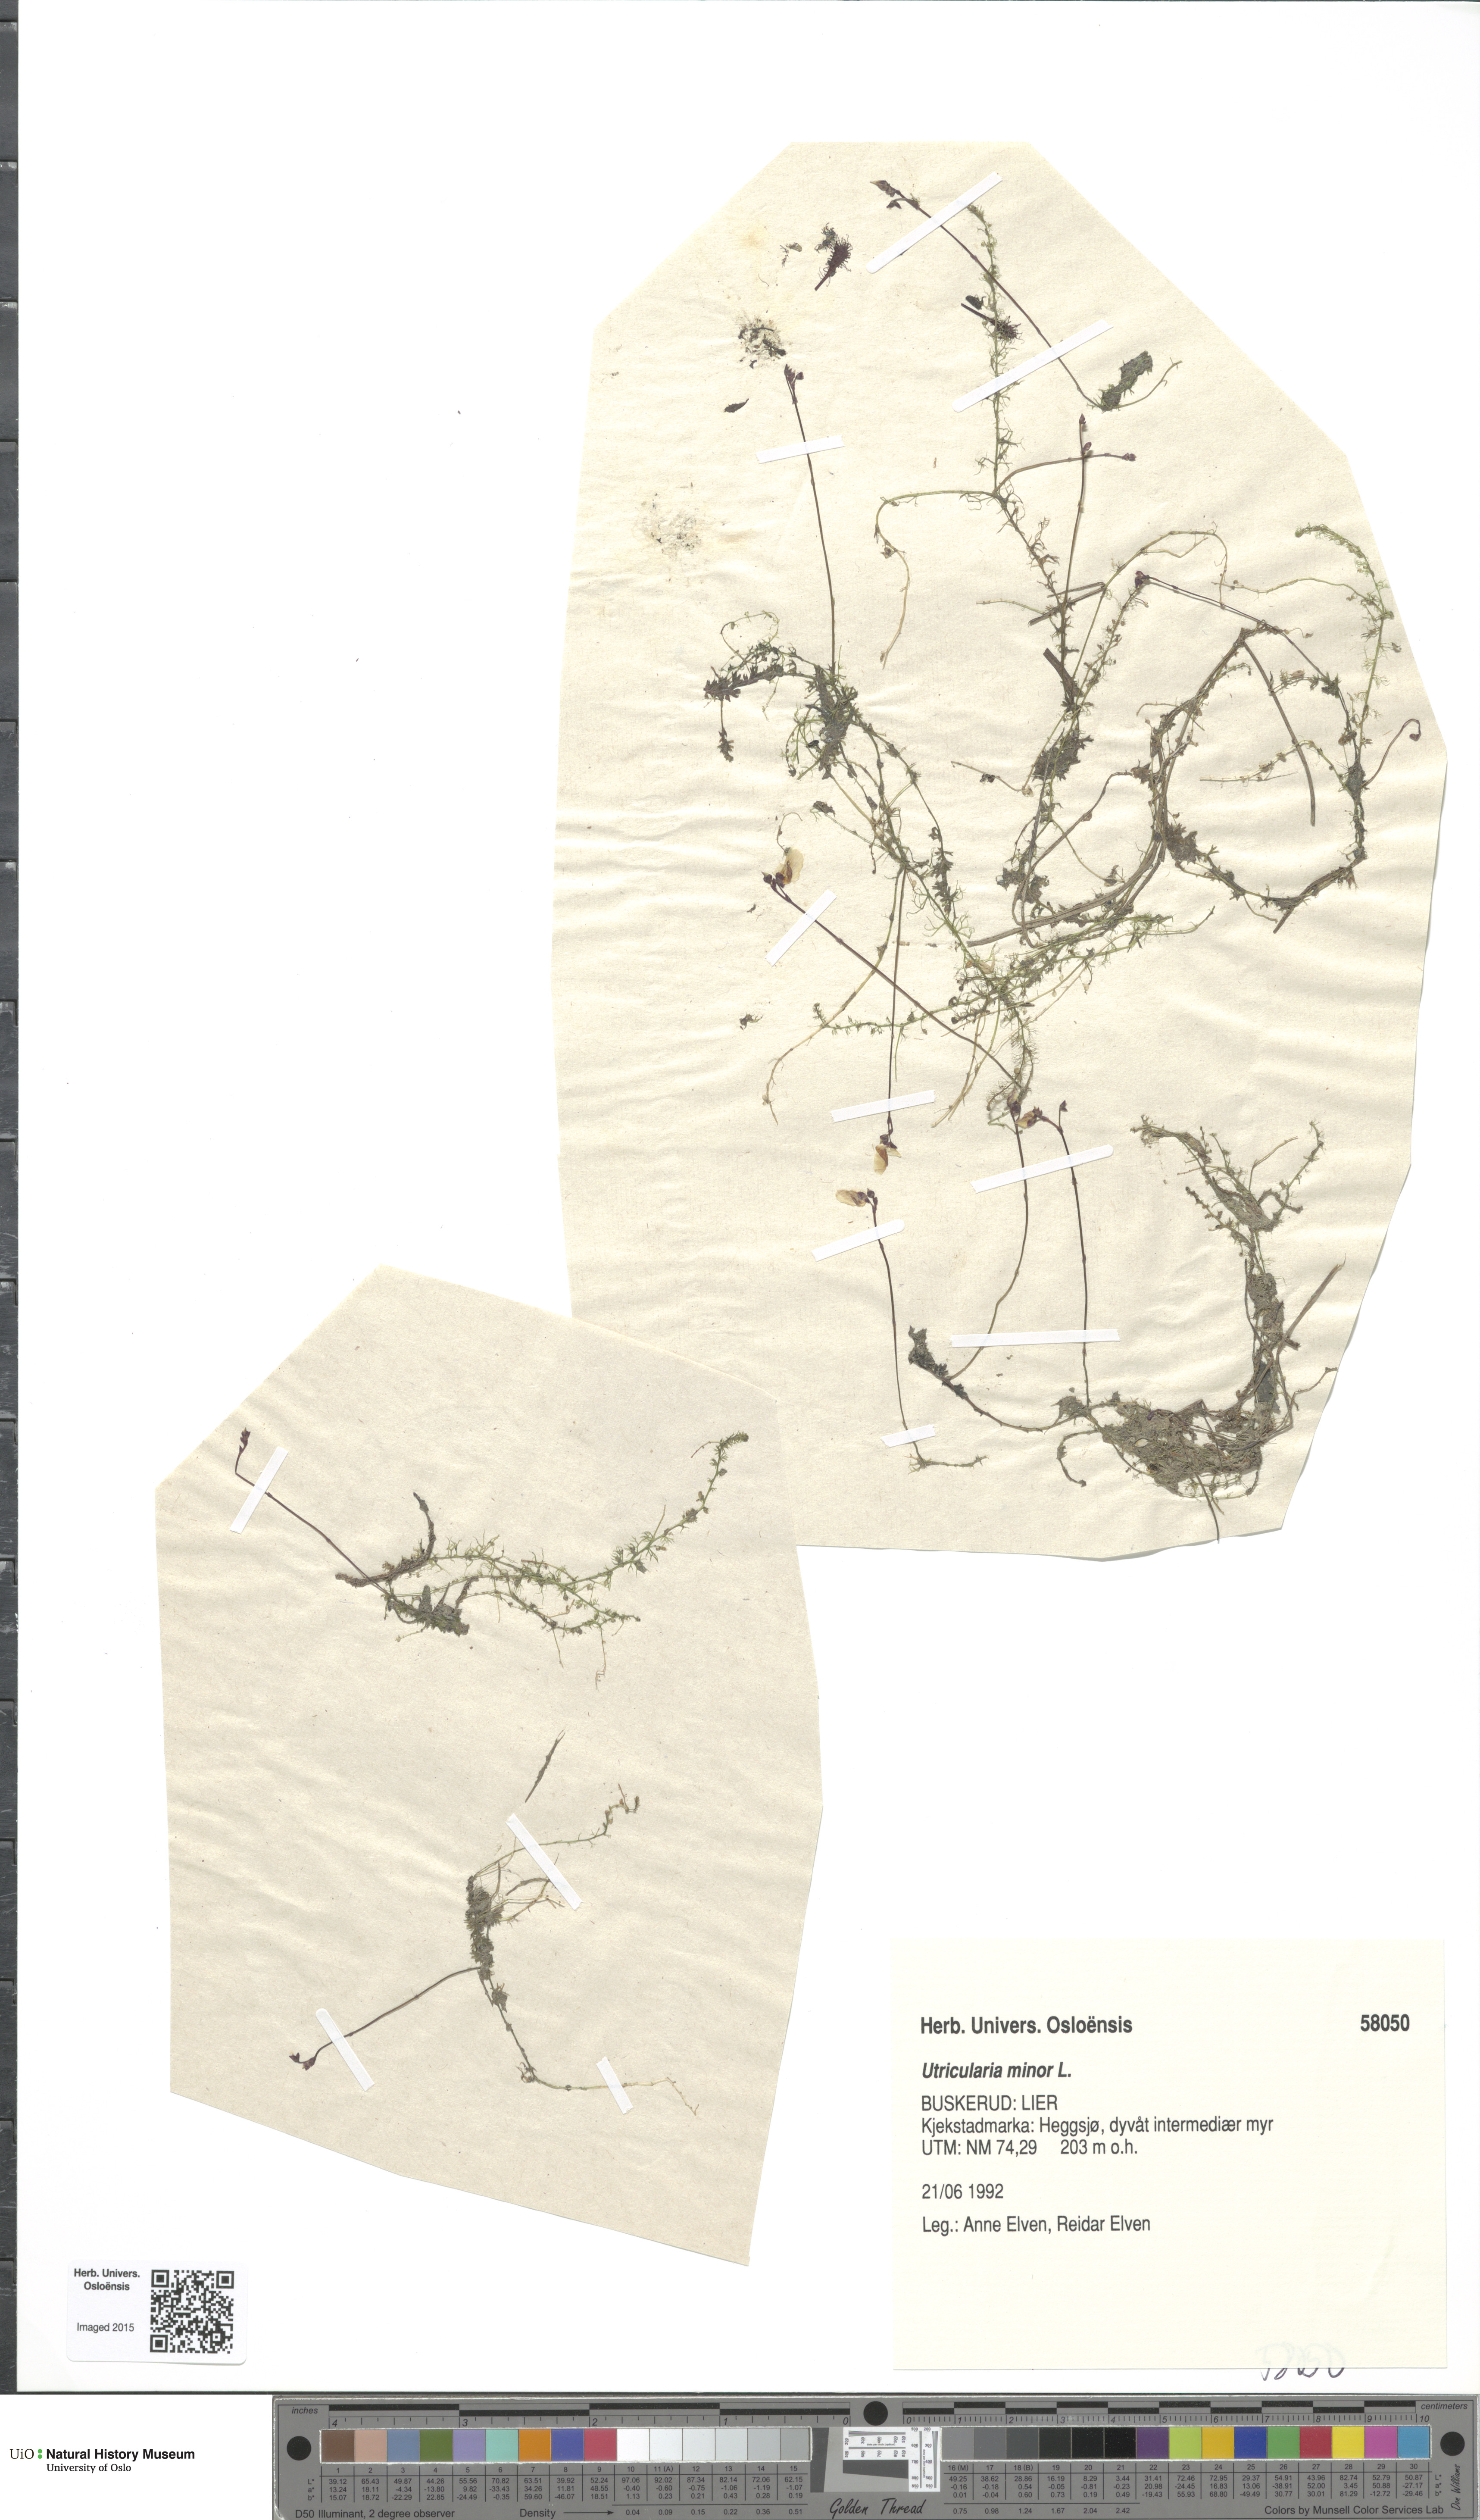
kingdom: Plantae
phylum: Tracheophyta
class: Magnoliopsida
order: Lamiales
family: Lentibulariaceae
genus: Utricularia
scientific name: Utricularia minor
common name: Lesser bladderwort
